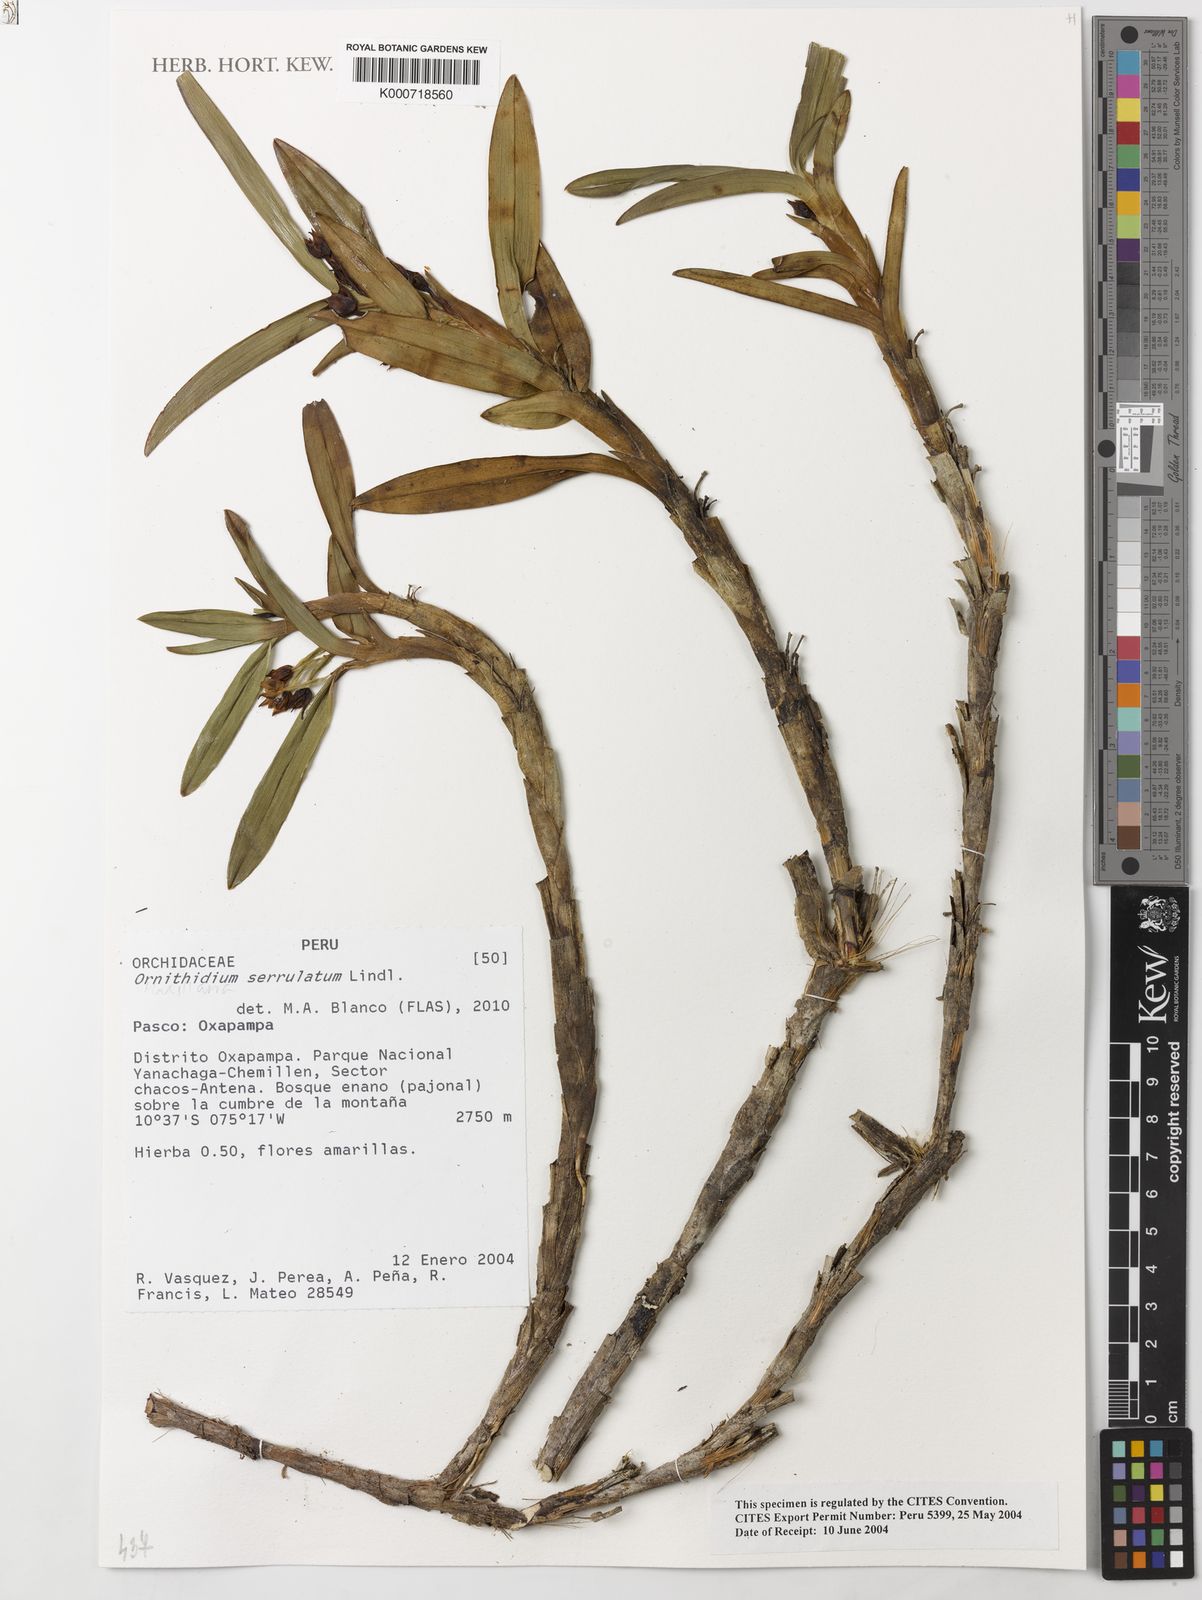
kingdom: Plantae
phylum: Tracheophyta
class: Liliopsida
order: Asparagales
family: Orchidaceae
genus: Maxillaria
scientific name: Maxillaria alticola
